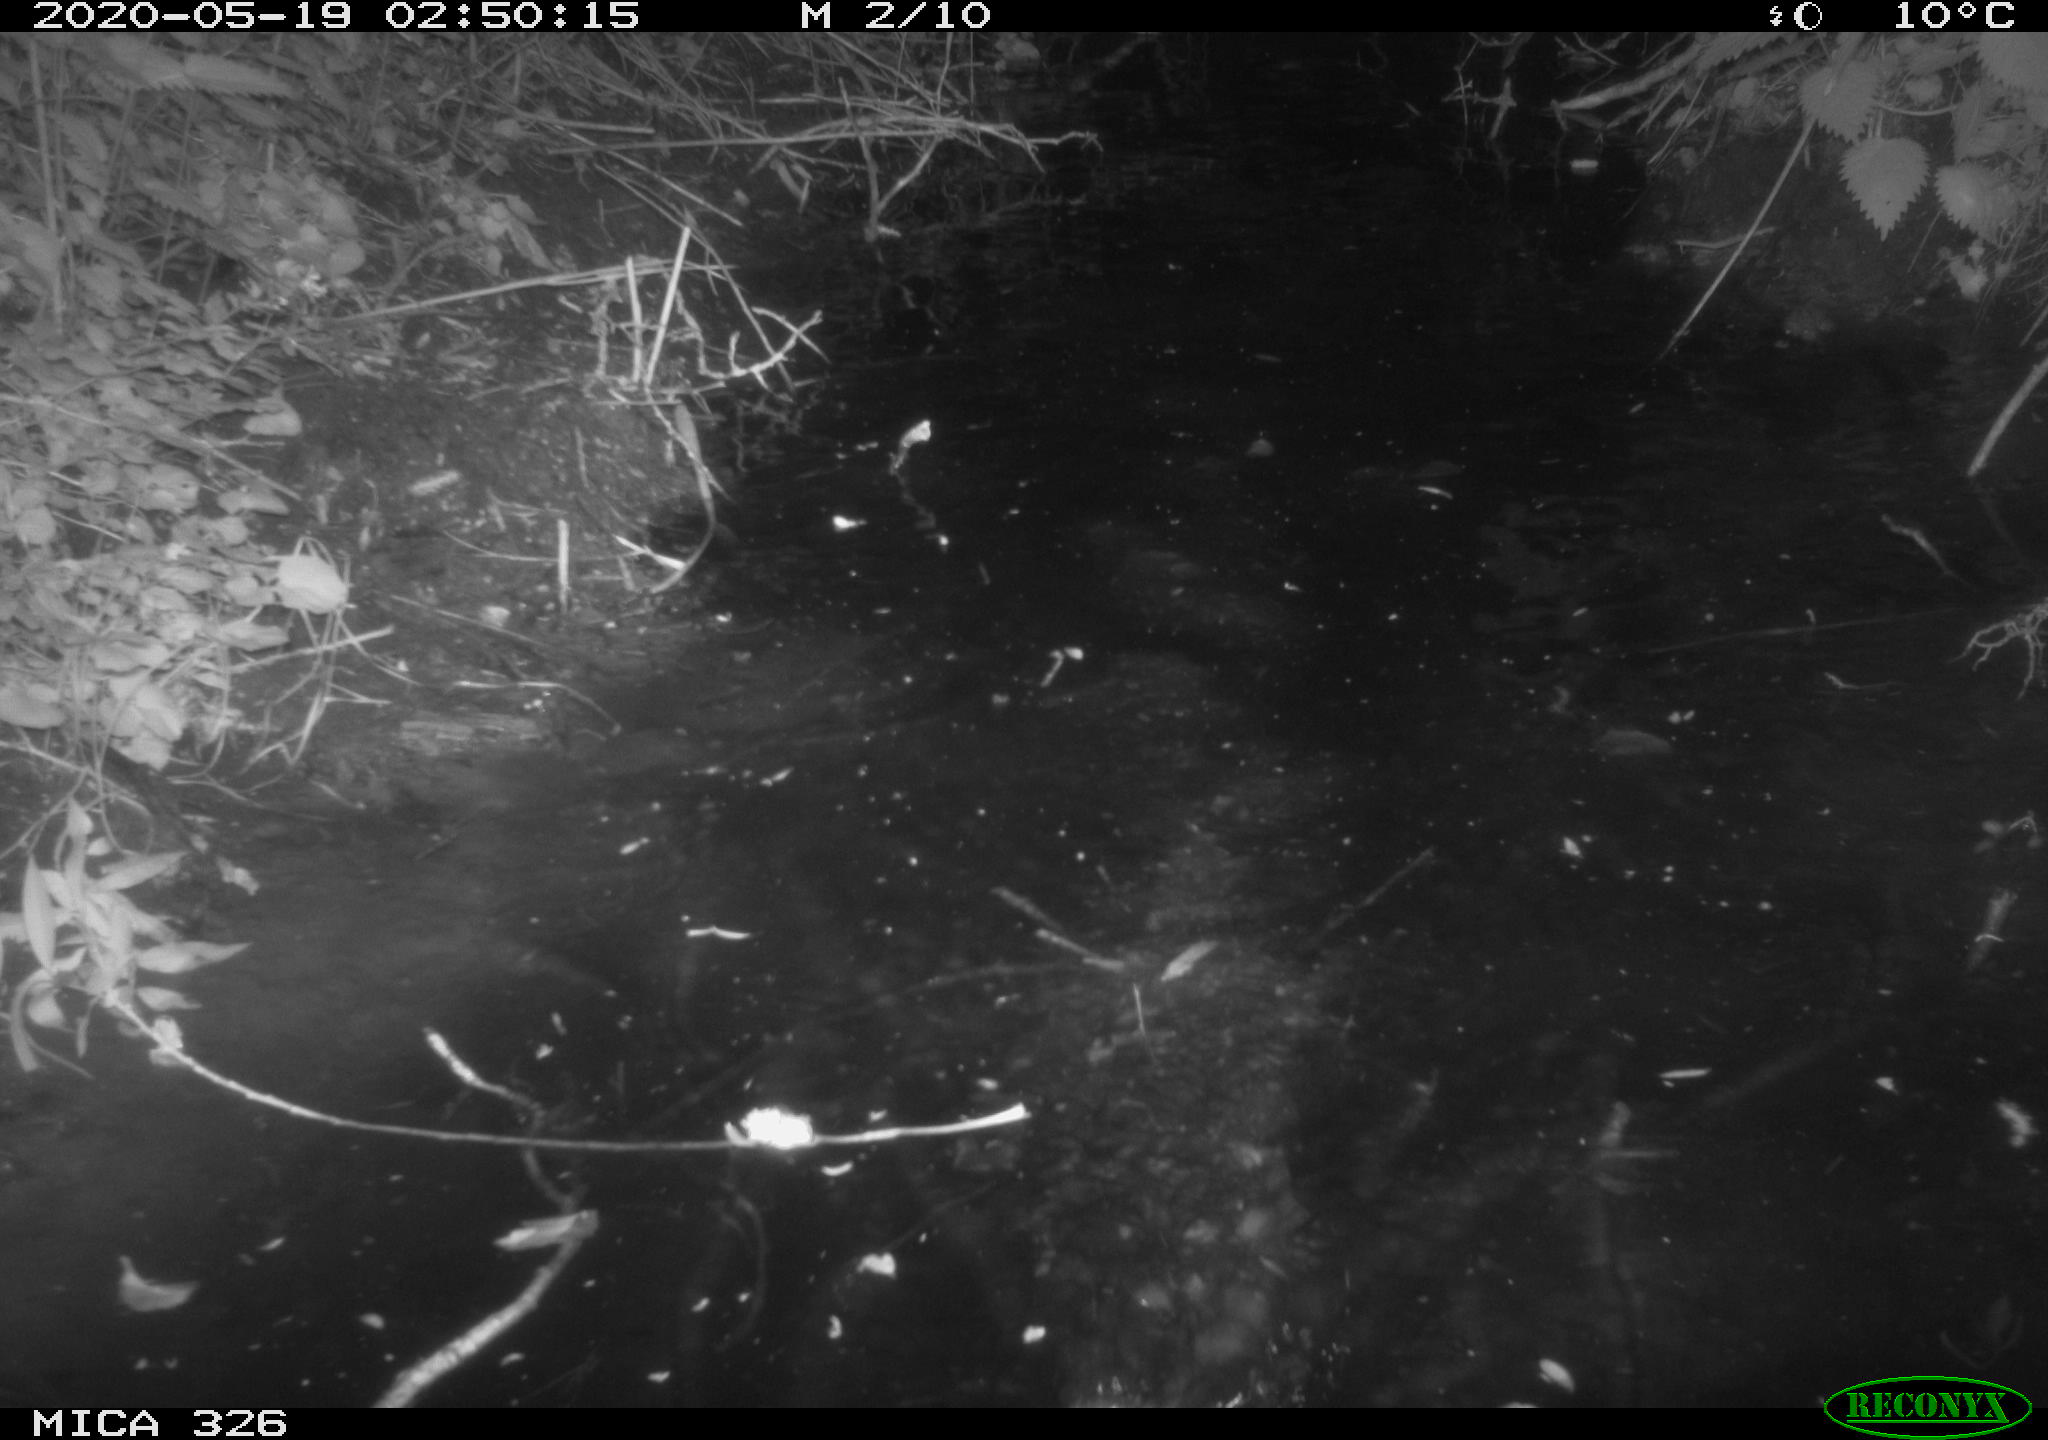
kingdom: Animalia
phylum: Chordata
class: Mammalia
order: Rodentia
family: Cricetidae
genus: Ondatra
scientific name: Ondatra zibethicus
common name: Muskrat
